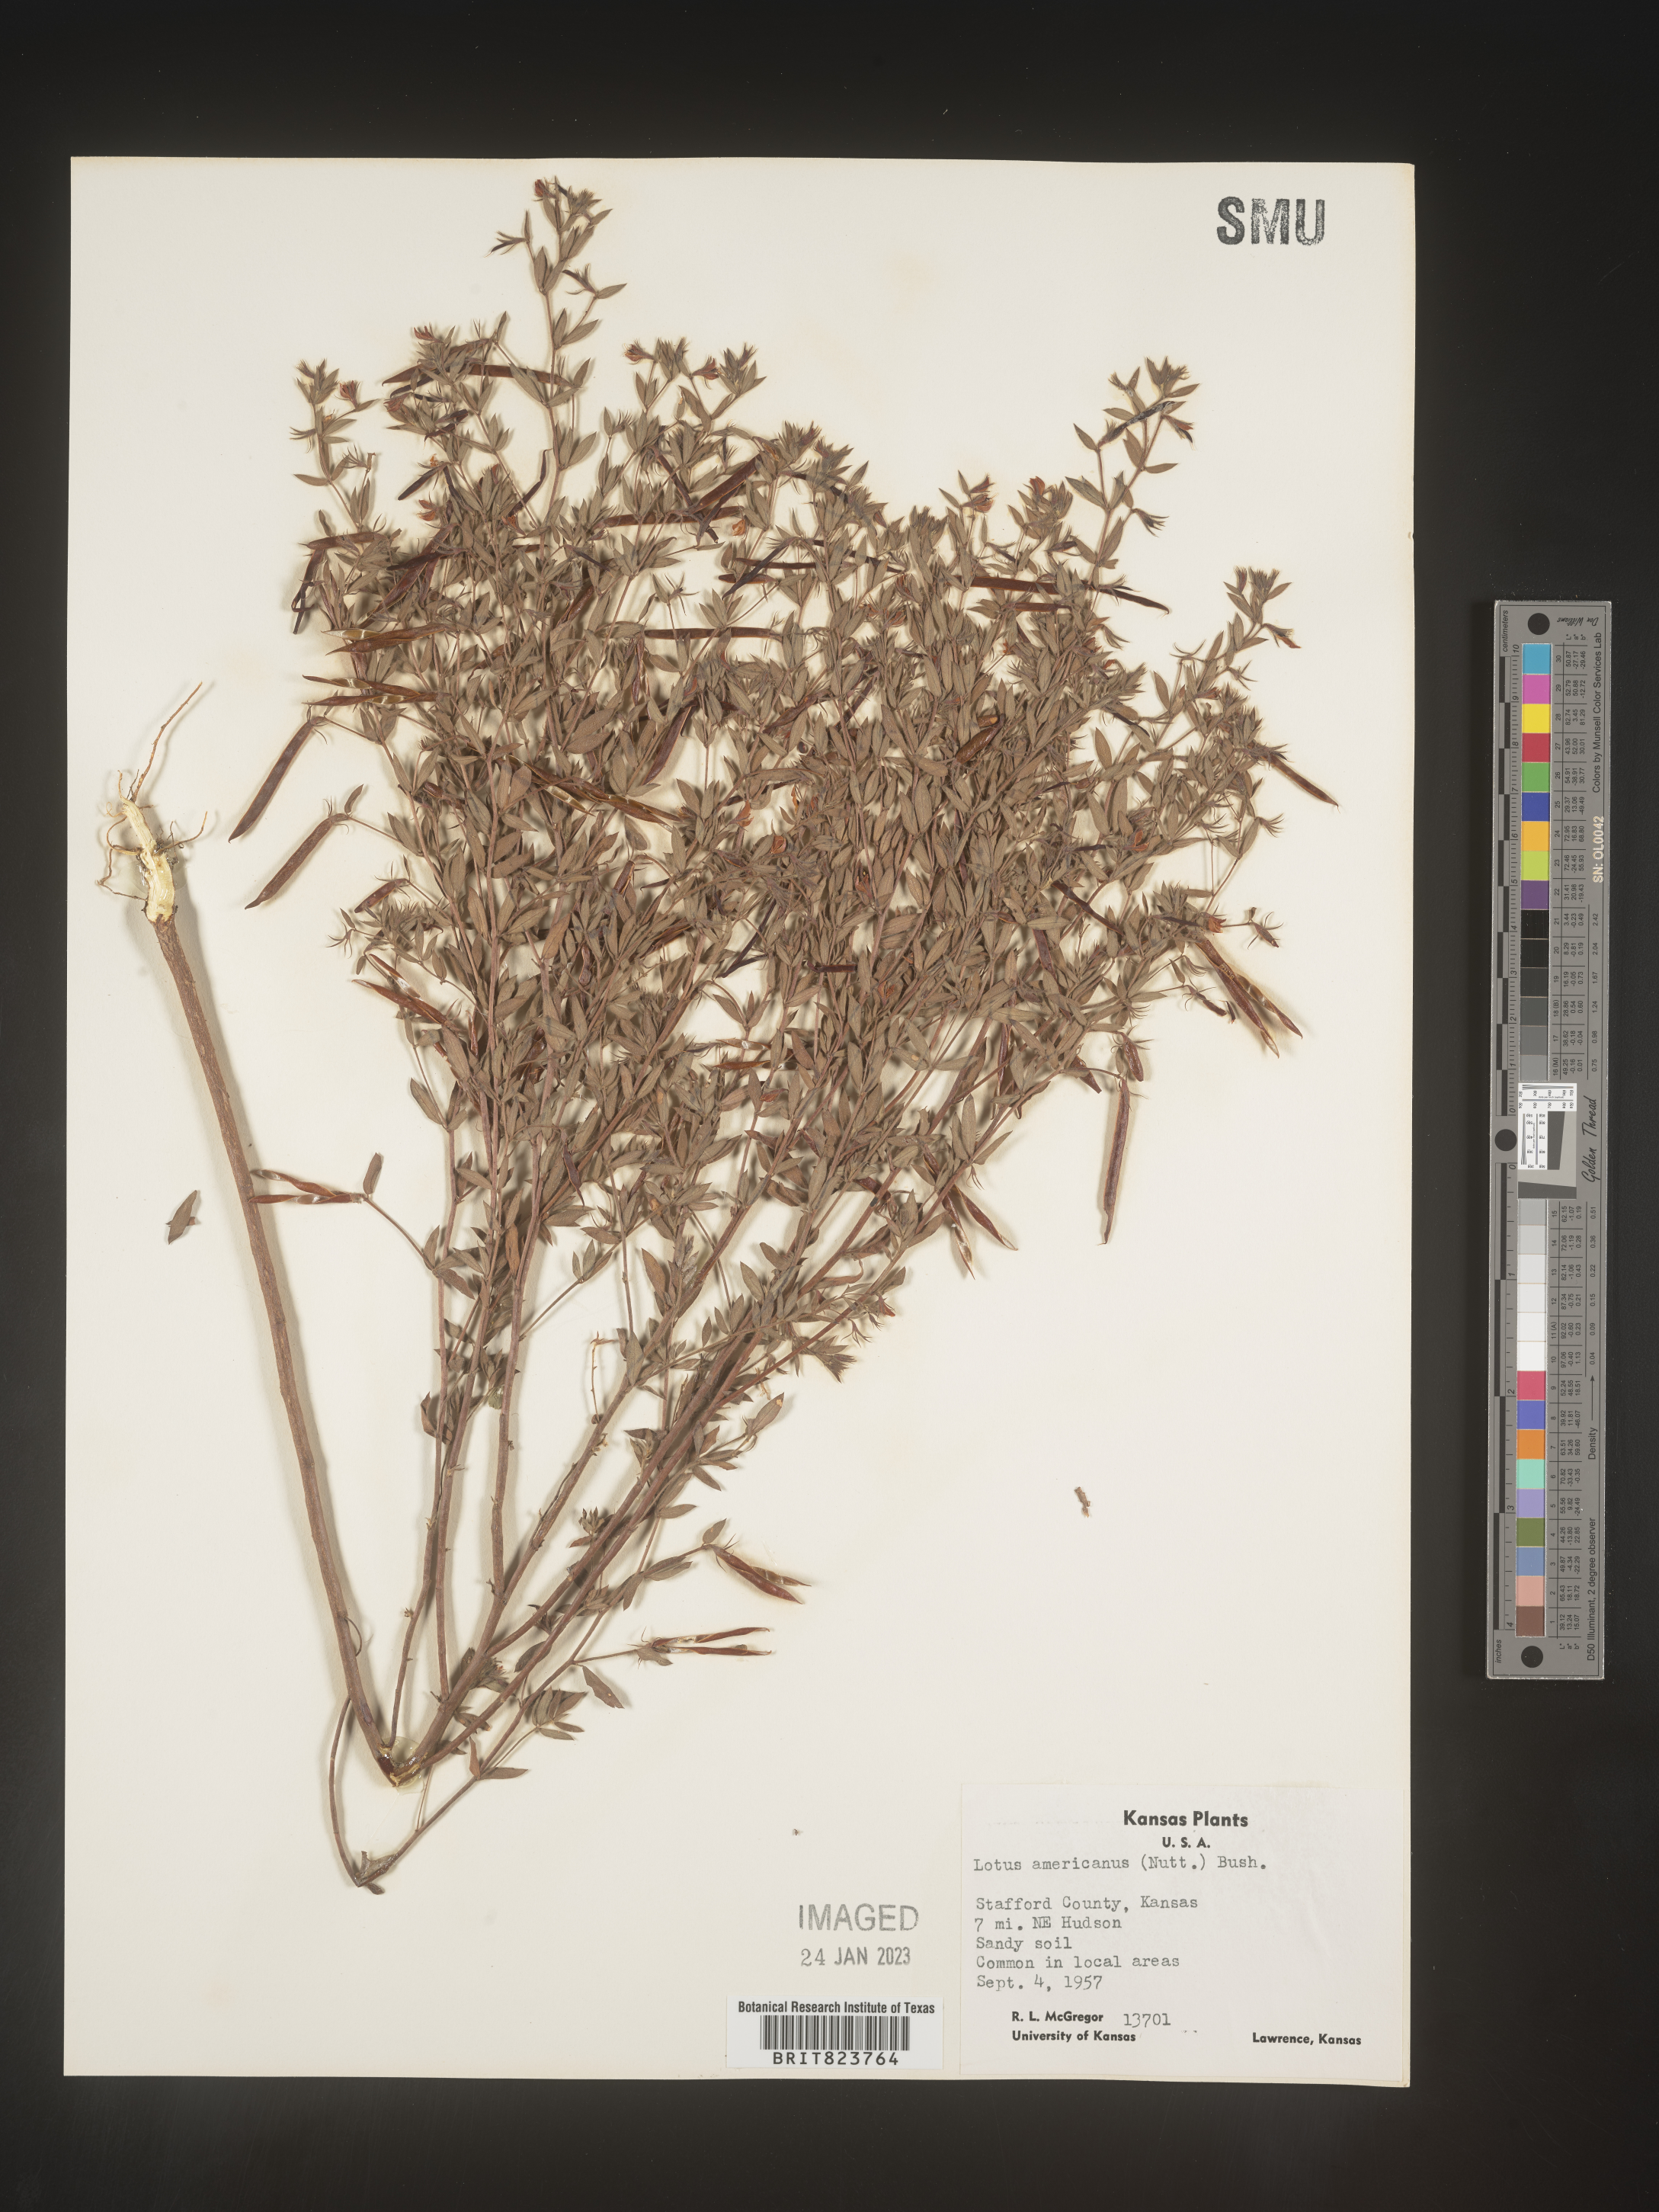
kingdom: Plantae
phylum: Tracheophyta
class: Magnoliopsida
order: Fabales
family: Fabaceae
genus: Acmispon
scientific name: Acmispon americanus
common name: American bird's-foot trefoil
